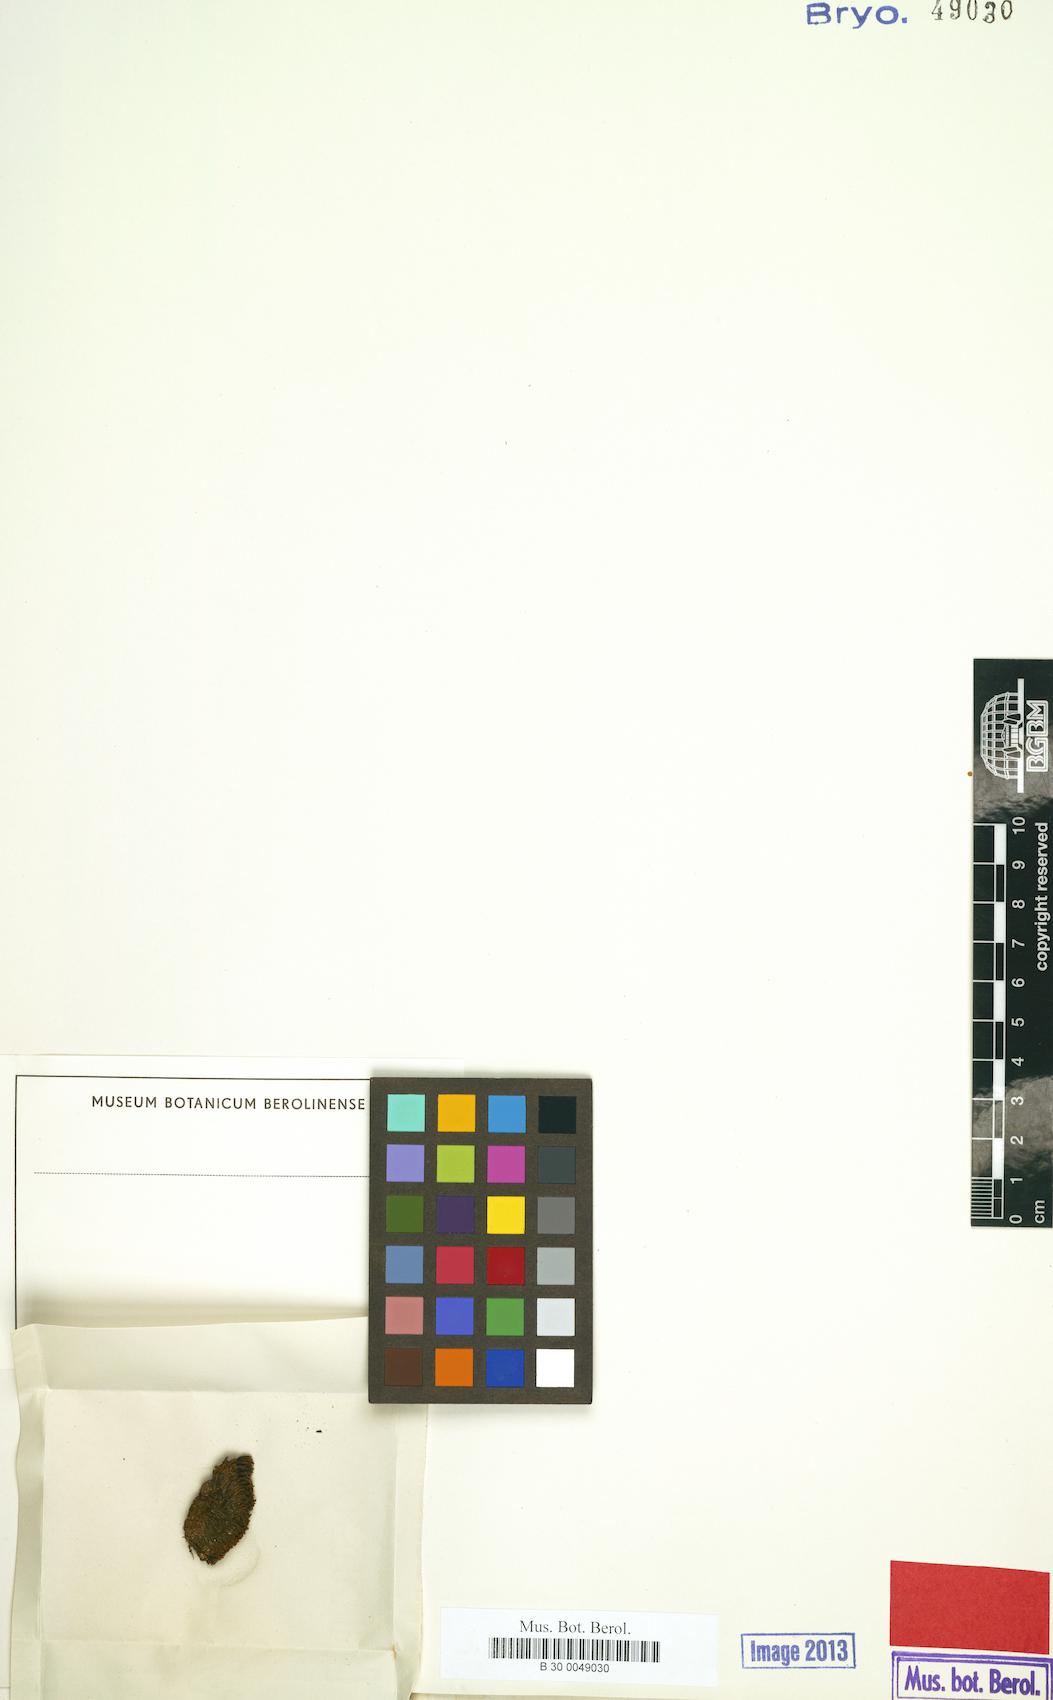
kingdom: Plantae
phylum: Bryophyta
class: Bryopsida
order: Pottiales
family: Pottiaceae
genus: Barbula
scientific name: Barbula unguiculata
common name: Prickly beard moss
